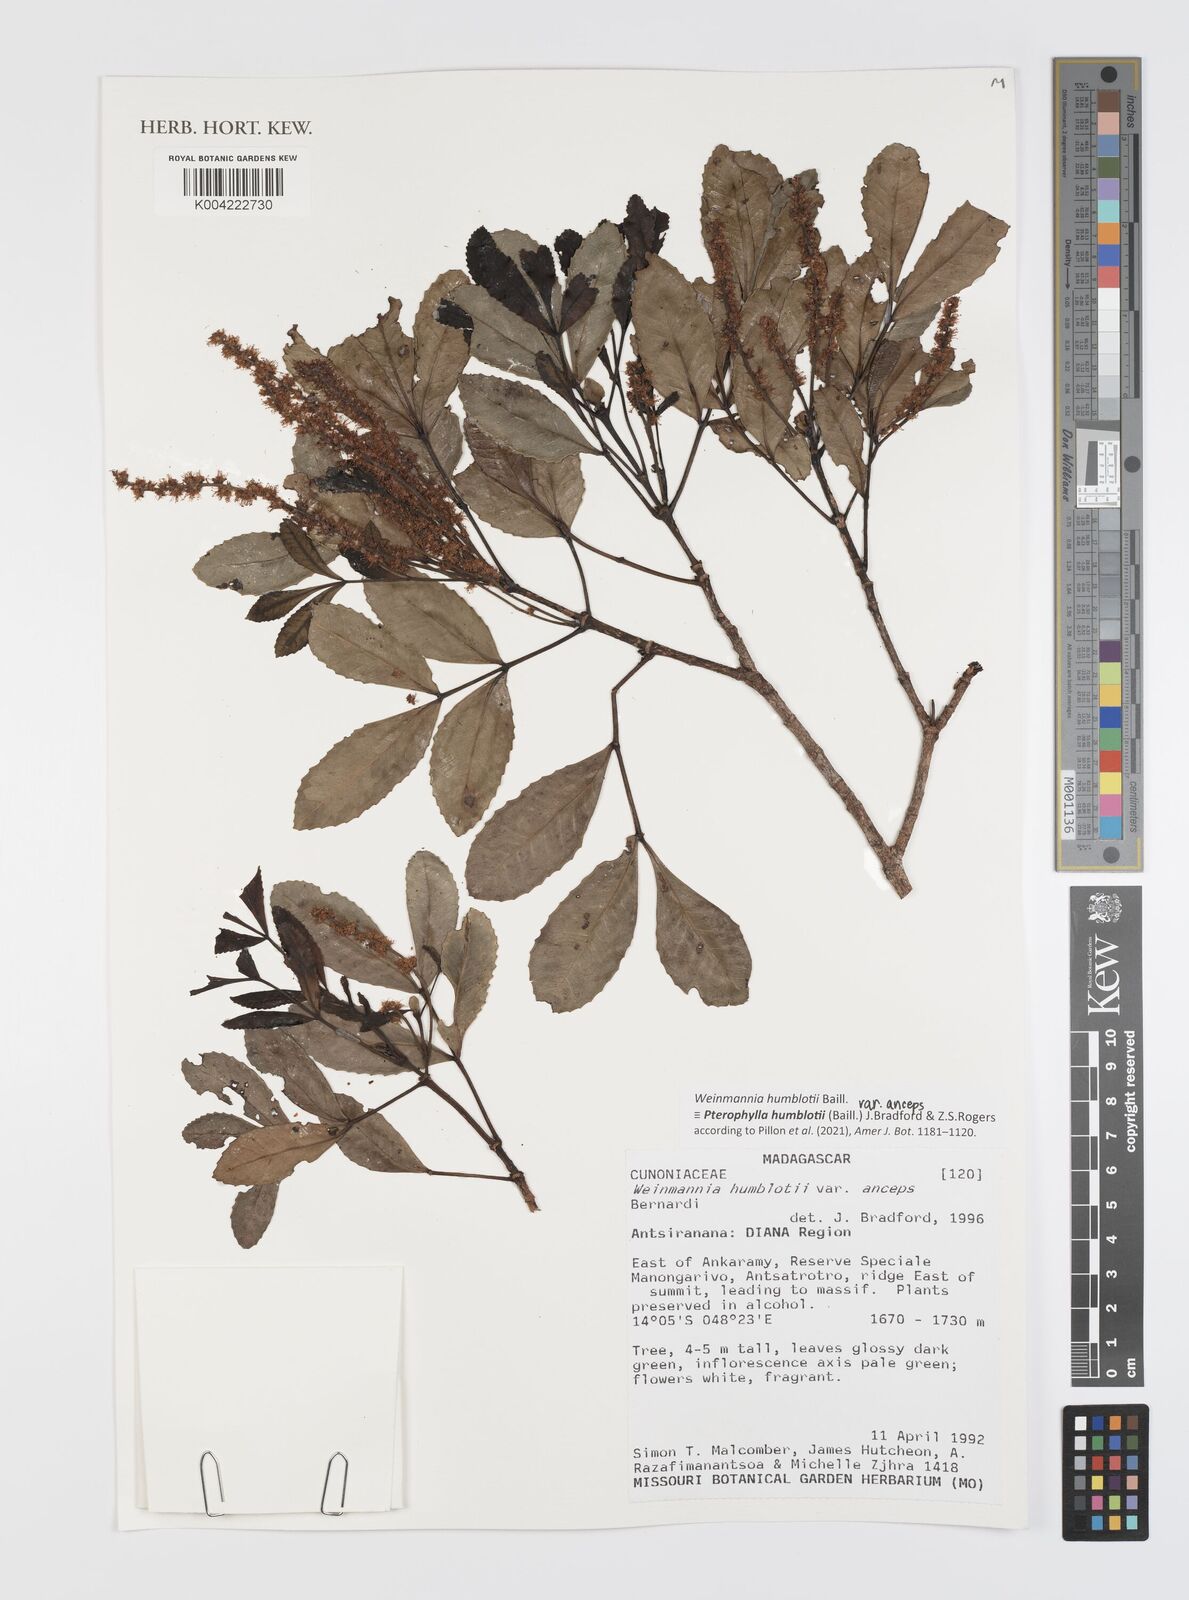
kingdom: Plantae
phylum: Tracheophyta
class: Magnoliopsida
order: Oxalidales
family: Cunoniaceae
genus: Pterophylla
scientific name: Pterophylla
